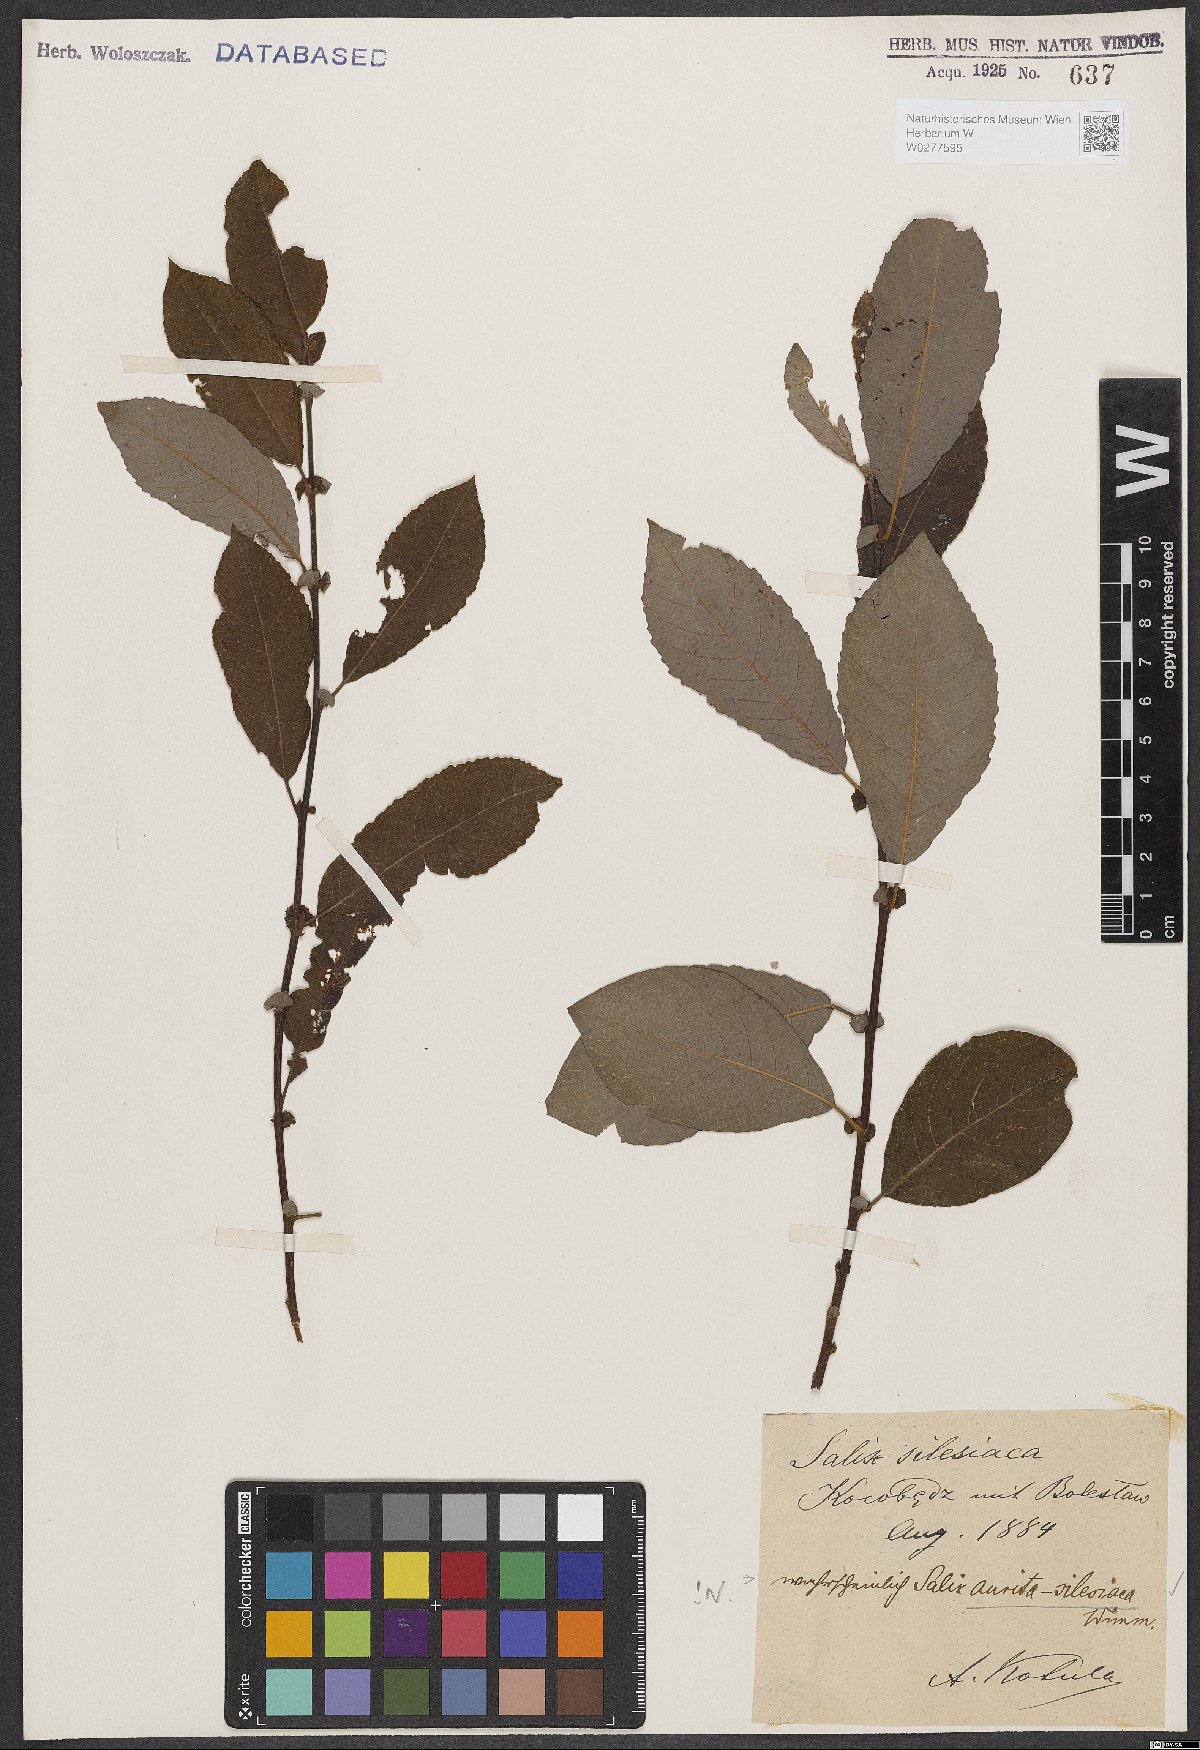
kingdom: Plantae
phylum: Tracheophyta
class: Magnoliopsida
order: Malpighiales
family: Salicaceae
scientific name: Salicaceae
